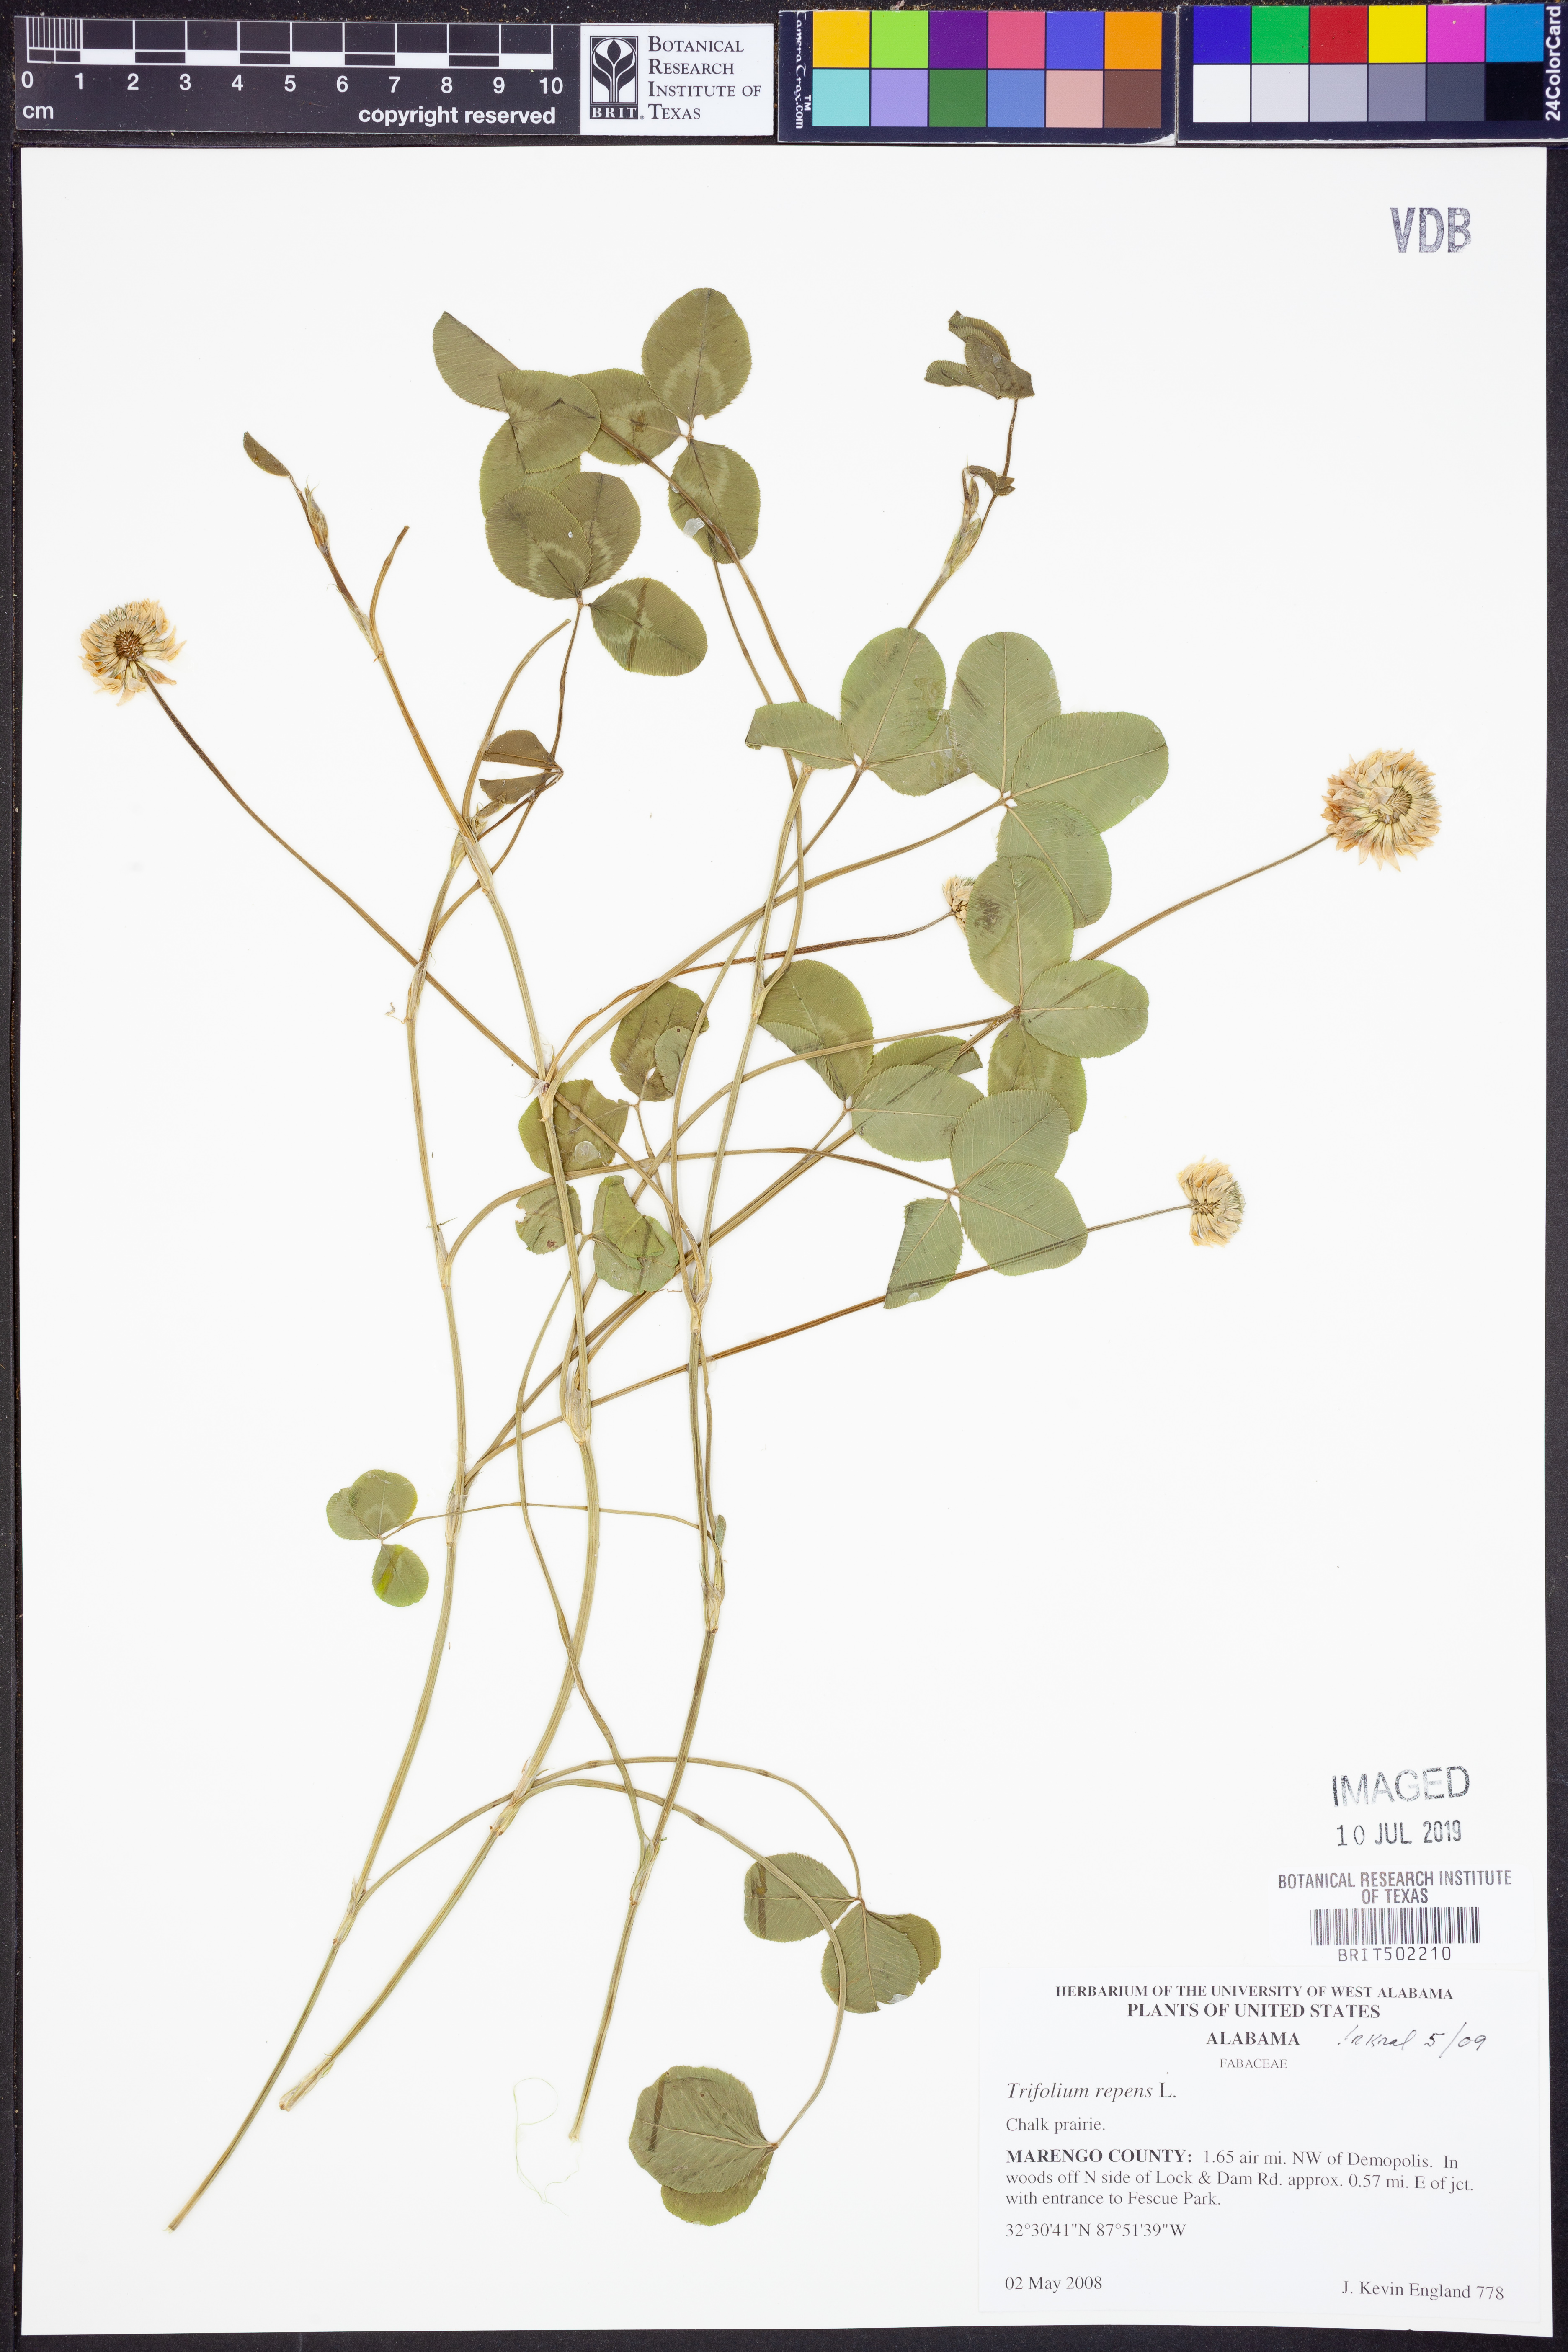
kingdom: Plantae
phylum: Tracheophyta
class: Magnoliopsida
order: Fabales
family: Fabaceae
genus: Trifolium
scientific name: Trifolium repens
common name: White clover
